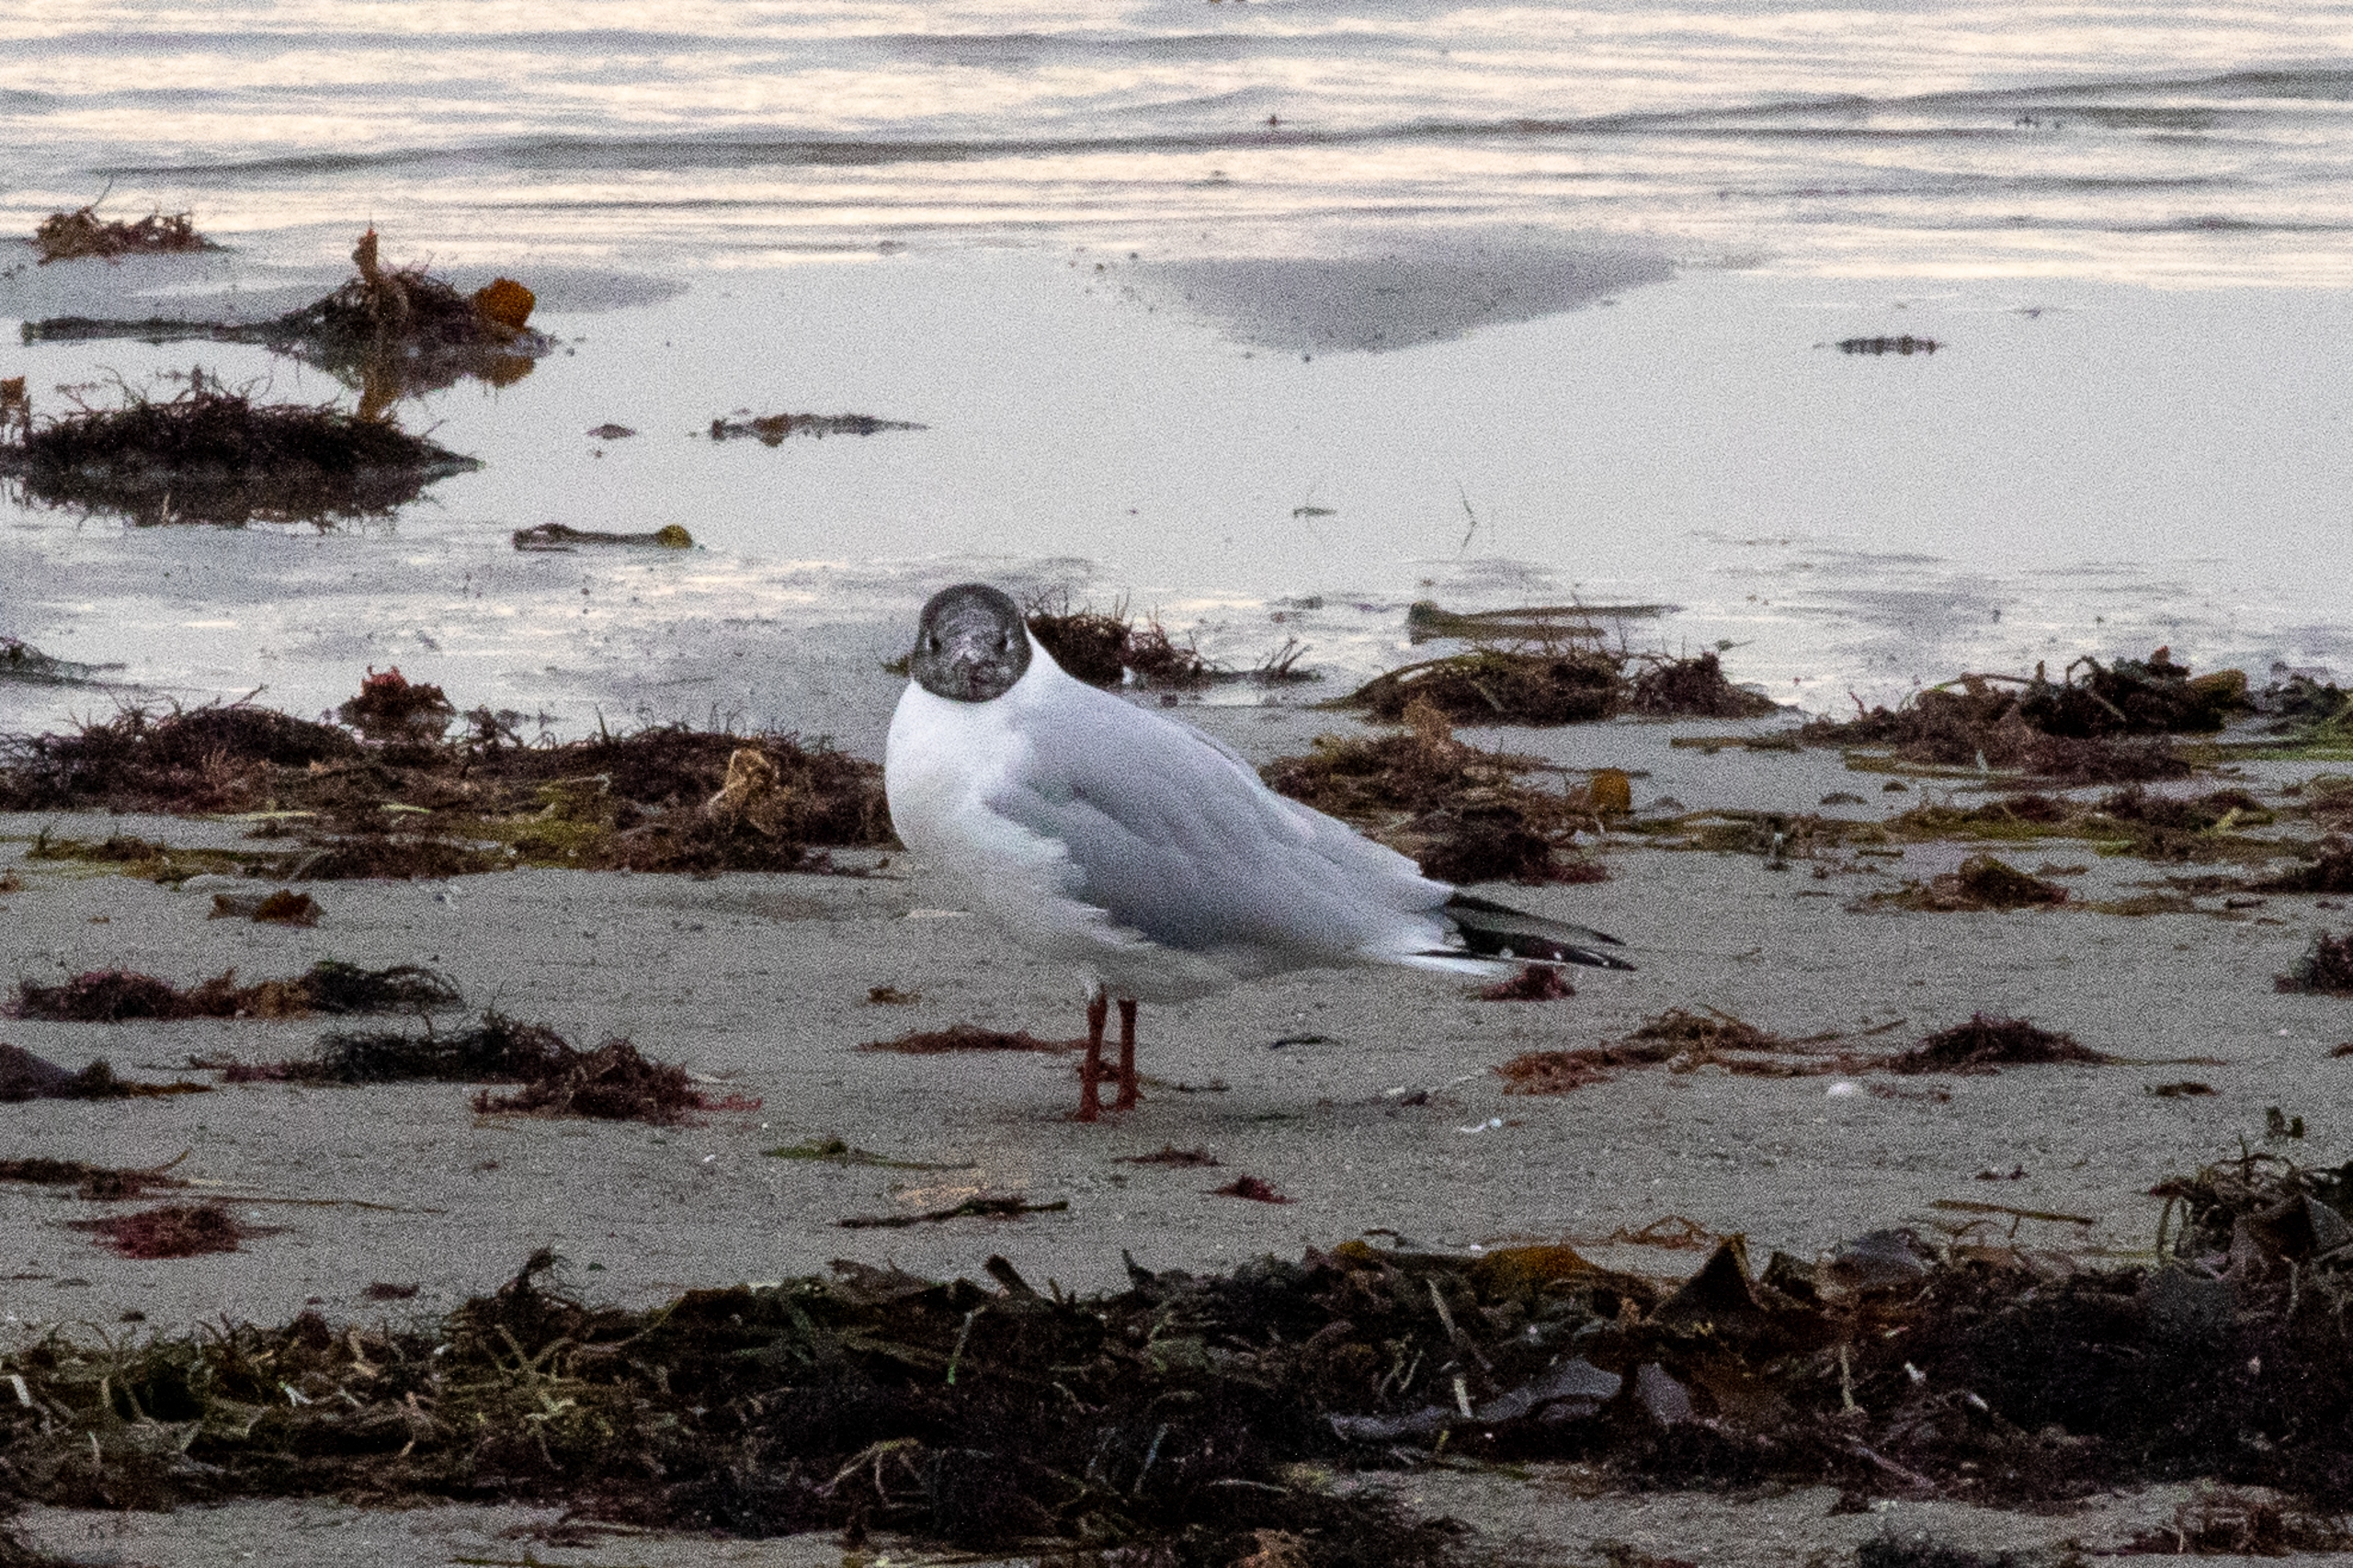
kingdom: Animalia
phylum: Chordata
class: Aves
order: Charadriiformes
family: Laridae
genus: Chroicocephalus
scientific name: Chroicocephalus ridibundus
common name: Hættemåge
